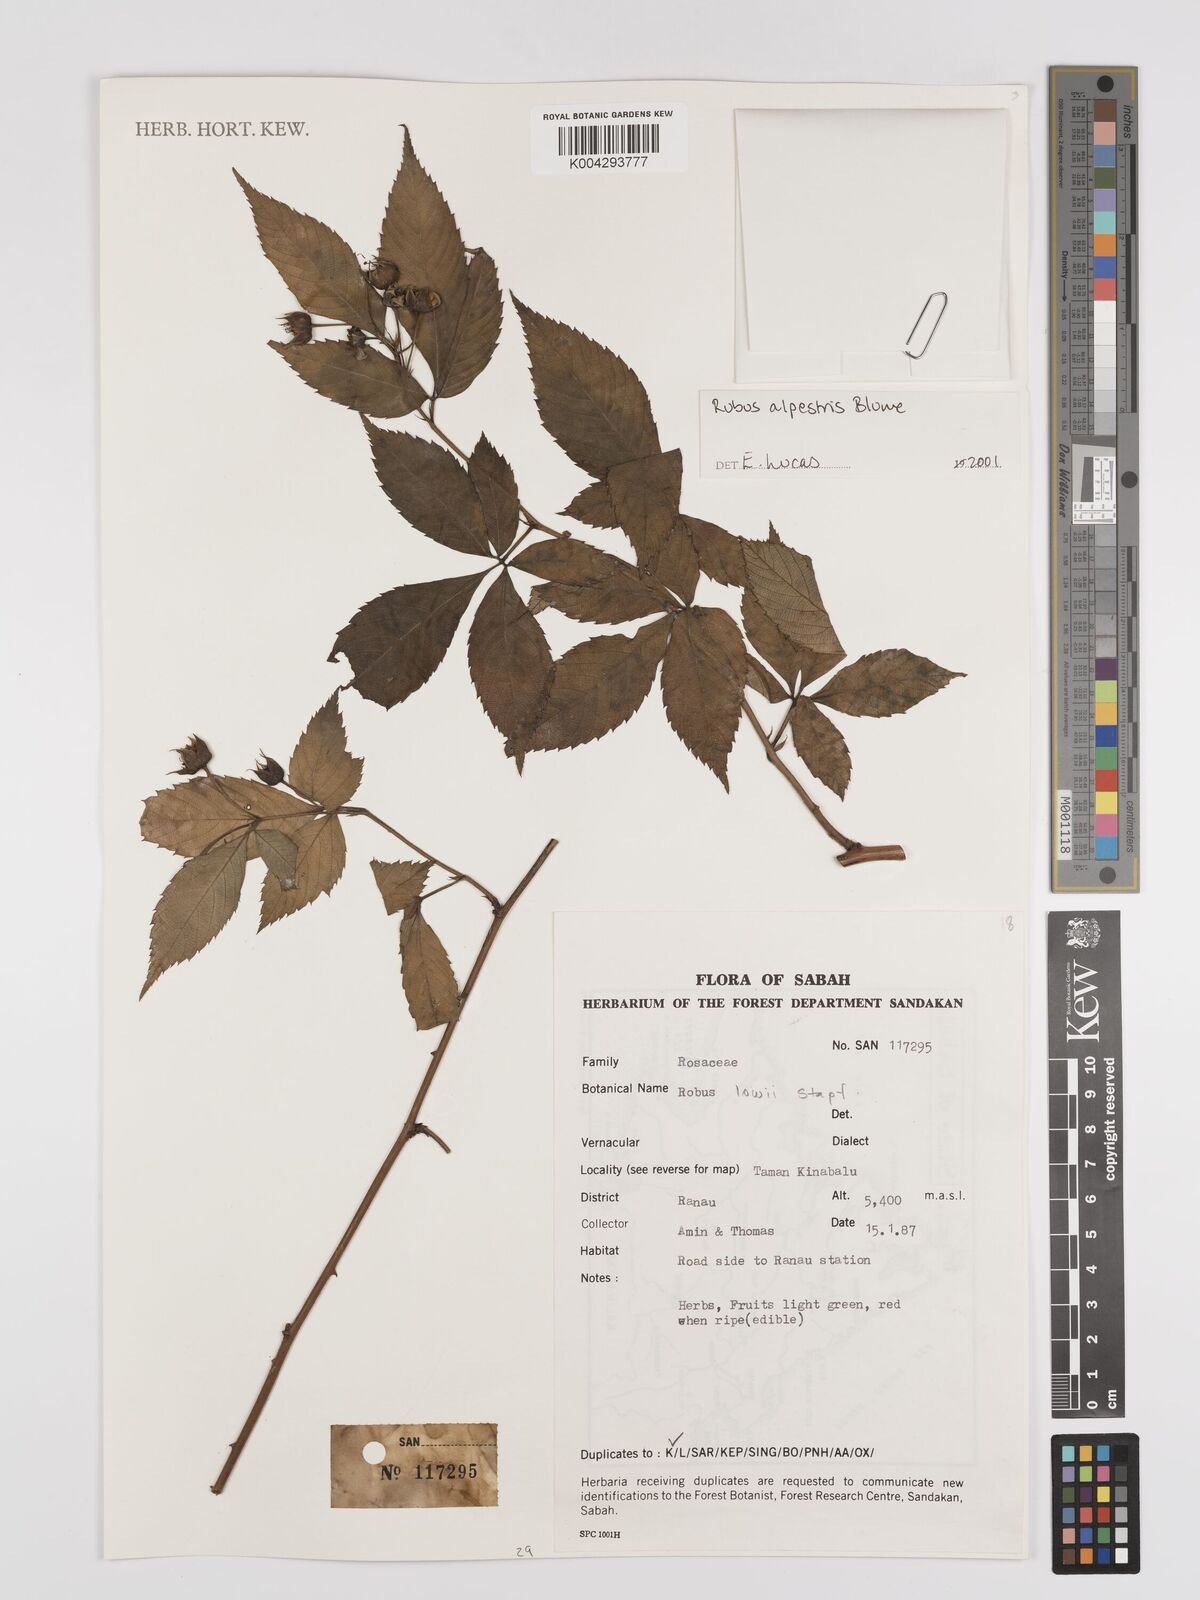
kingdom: Plantae
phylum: Tracheophyta
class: Magnoliopsida
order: Rosales
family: Rosaceae
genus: Rubus
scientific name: Rubus alpestris
